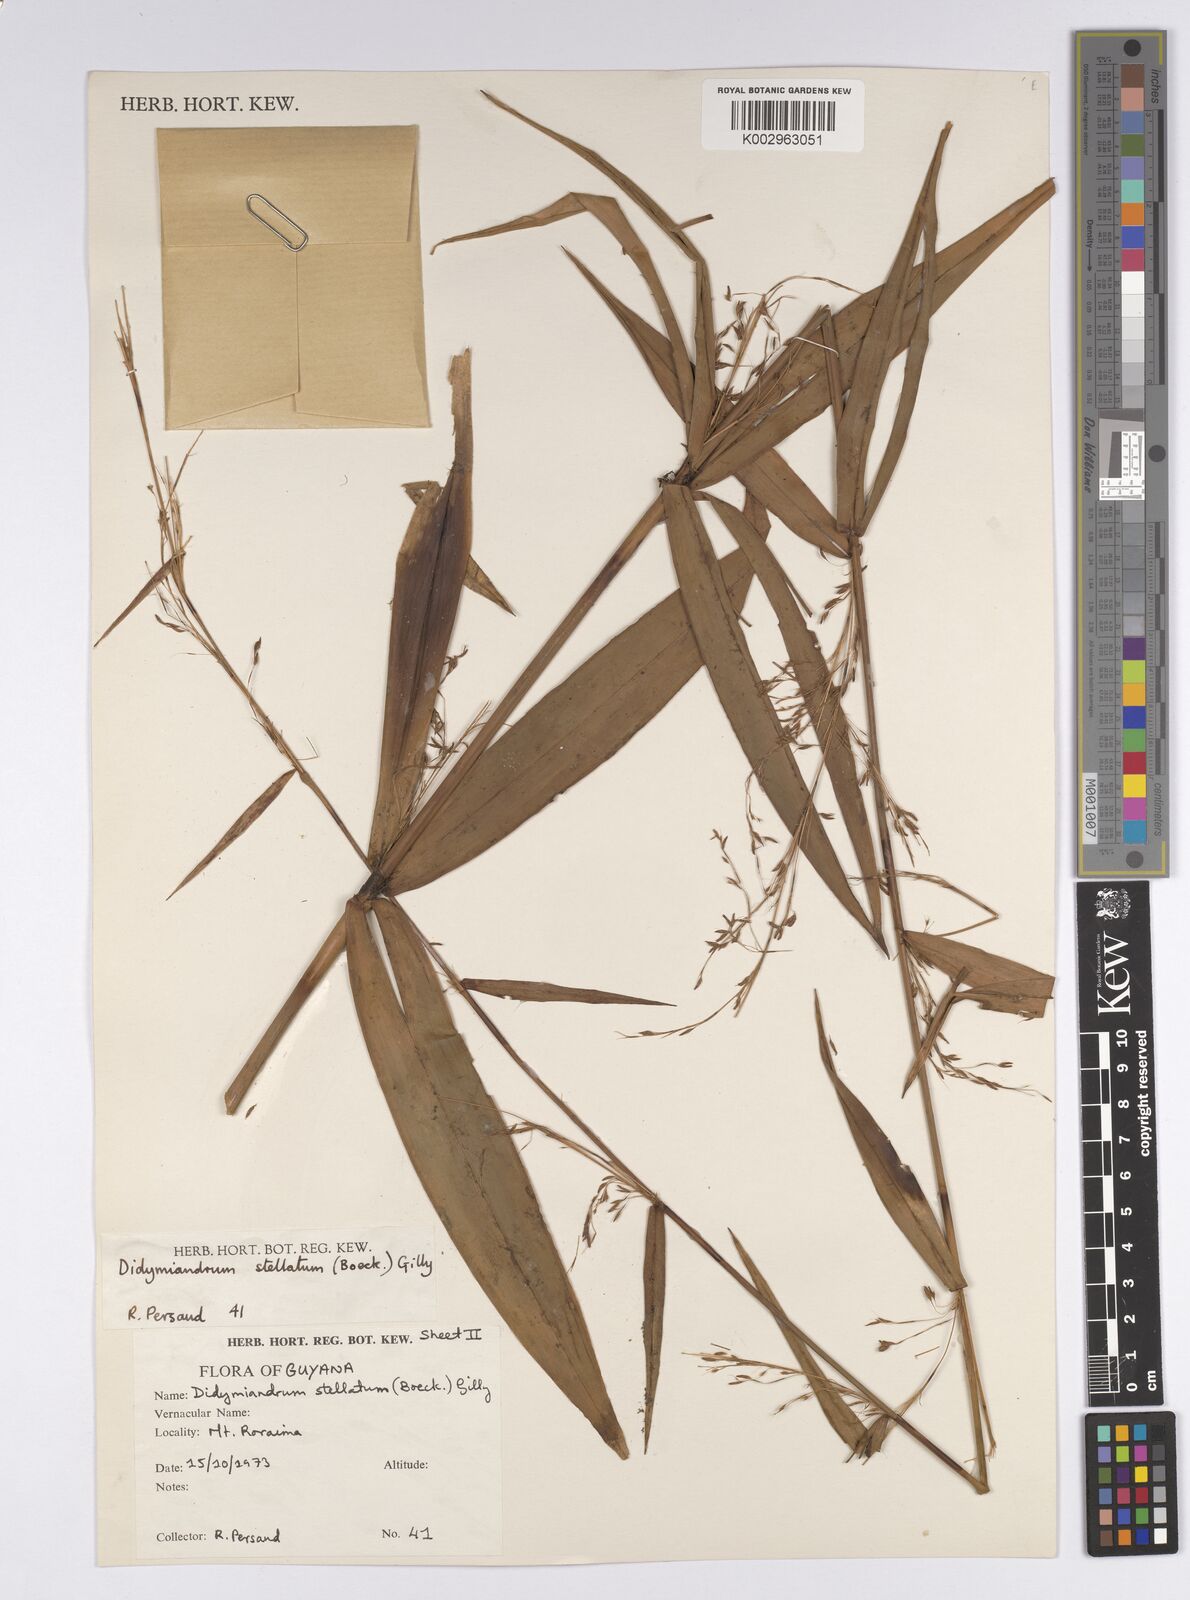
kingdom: Plantae
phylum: Tracheophyta
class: Liliopsida
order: Poales
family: Cyperaceae
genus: Didymiandrum
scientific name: Didymiandrum stellatum
